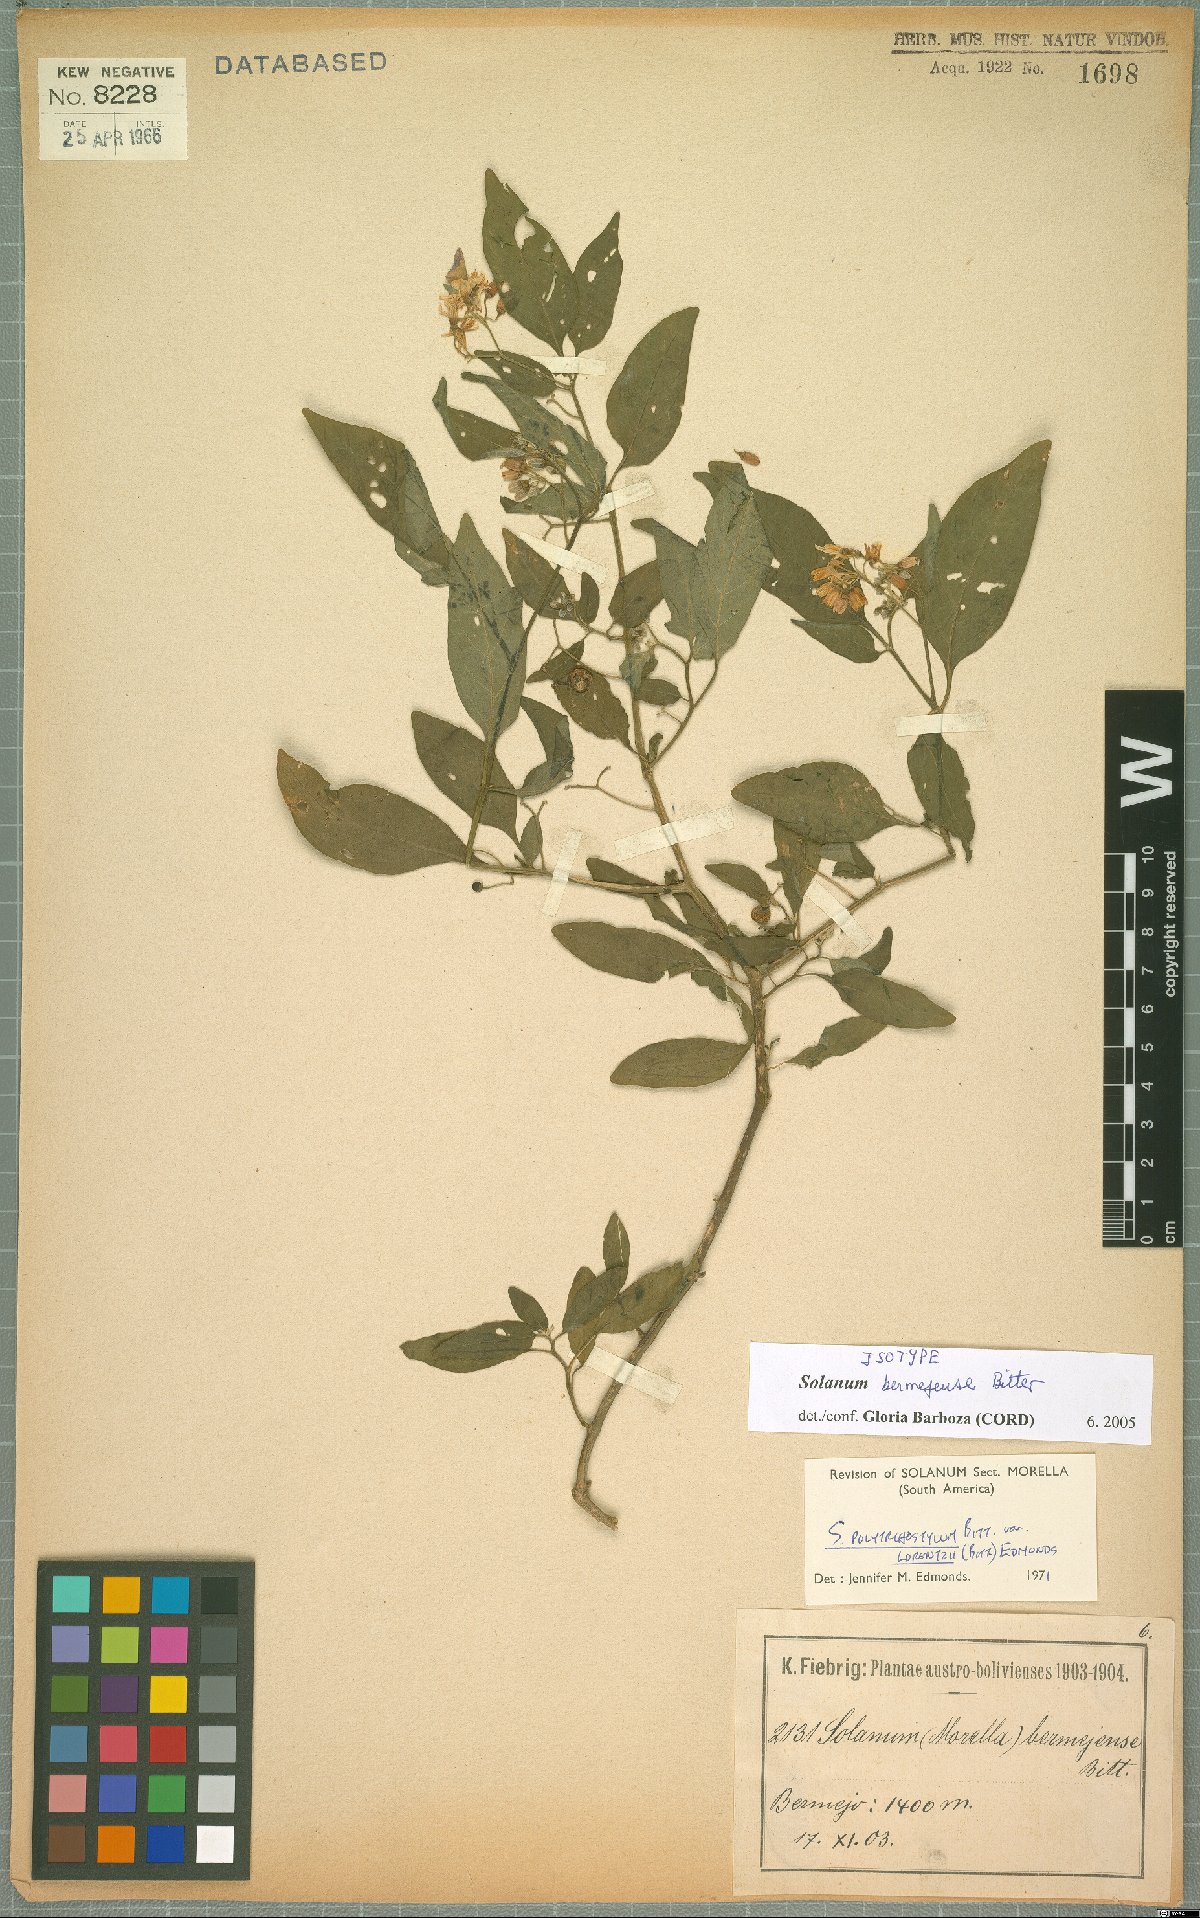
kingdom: Plantae
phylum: Tracheophyta
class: Magnoliopsida
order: Solanales
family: Solanaceae
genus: Solanum
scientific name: Solanum aloysiifolium
